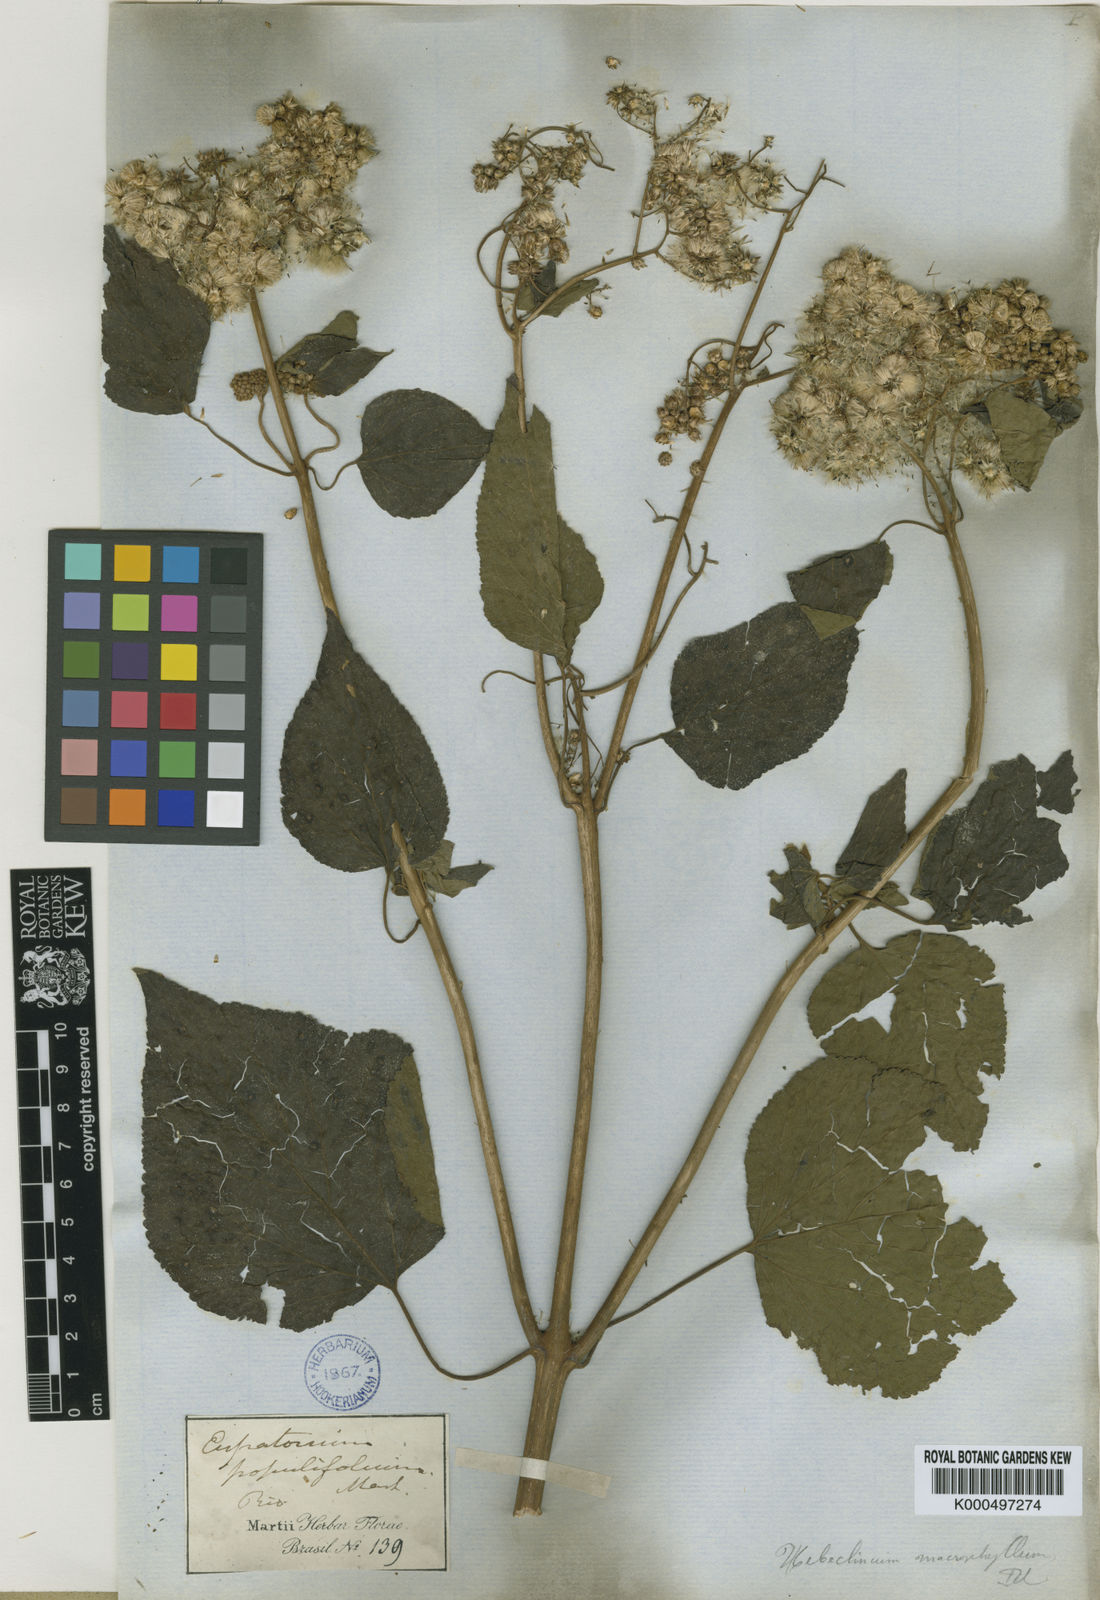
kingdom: Plantae
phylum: Tracheophyta
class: Magnoliopsida
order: Asterales
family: Asteraceae
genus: Hebeclinium
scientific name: Hebeclinium macrophyllum
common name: Largeleaf thoroughwort
